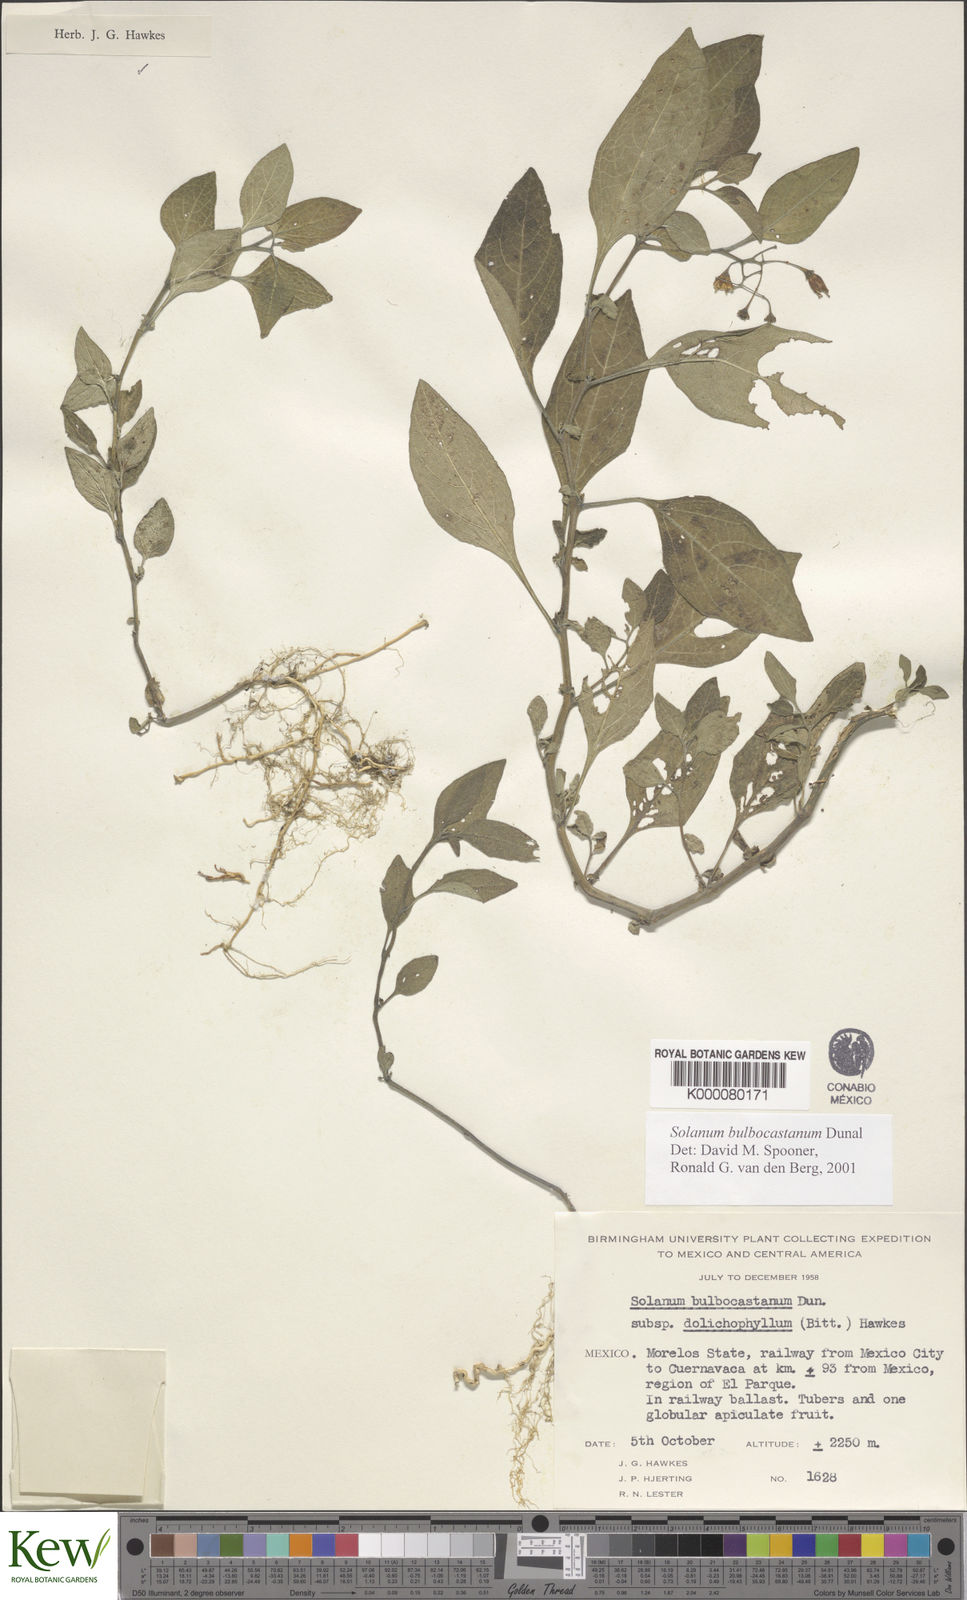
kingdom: Plantae
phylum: Tracheophyta
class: Magnoliopsida
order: Solanales
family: Solanaceae
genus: Solanum
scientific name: Solanum bulbocastanum
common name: Ornamental nightshade
